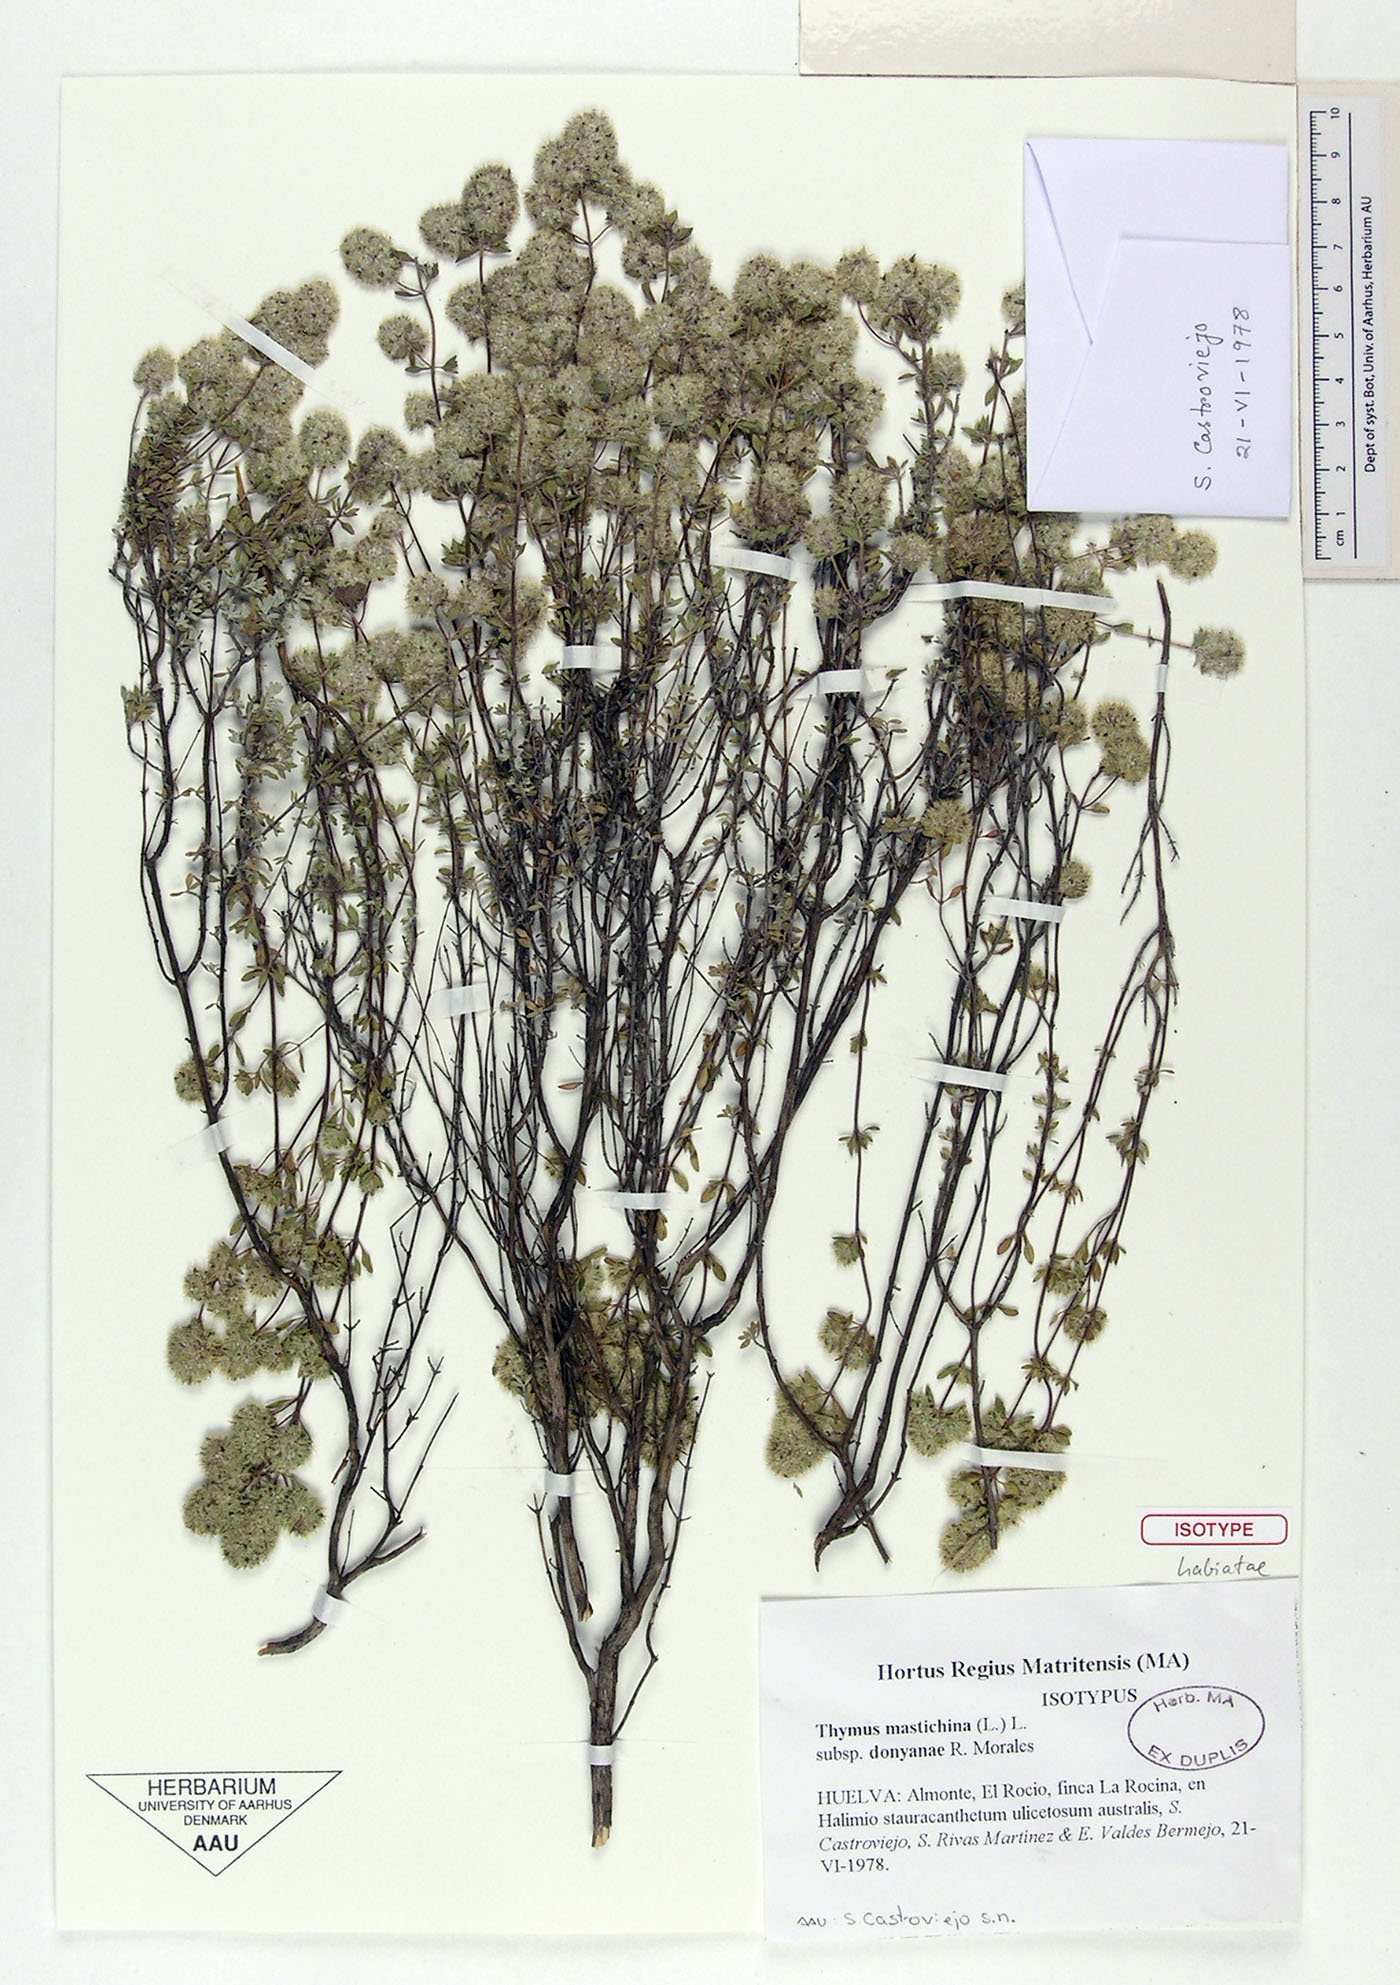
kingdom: Plantae
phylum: Tracheophyta
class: Magnoliopsida
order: Lamiales
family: Lamiaceae
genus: Thymus
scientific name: Thymus mastichina
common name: Mastic thyme
